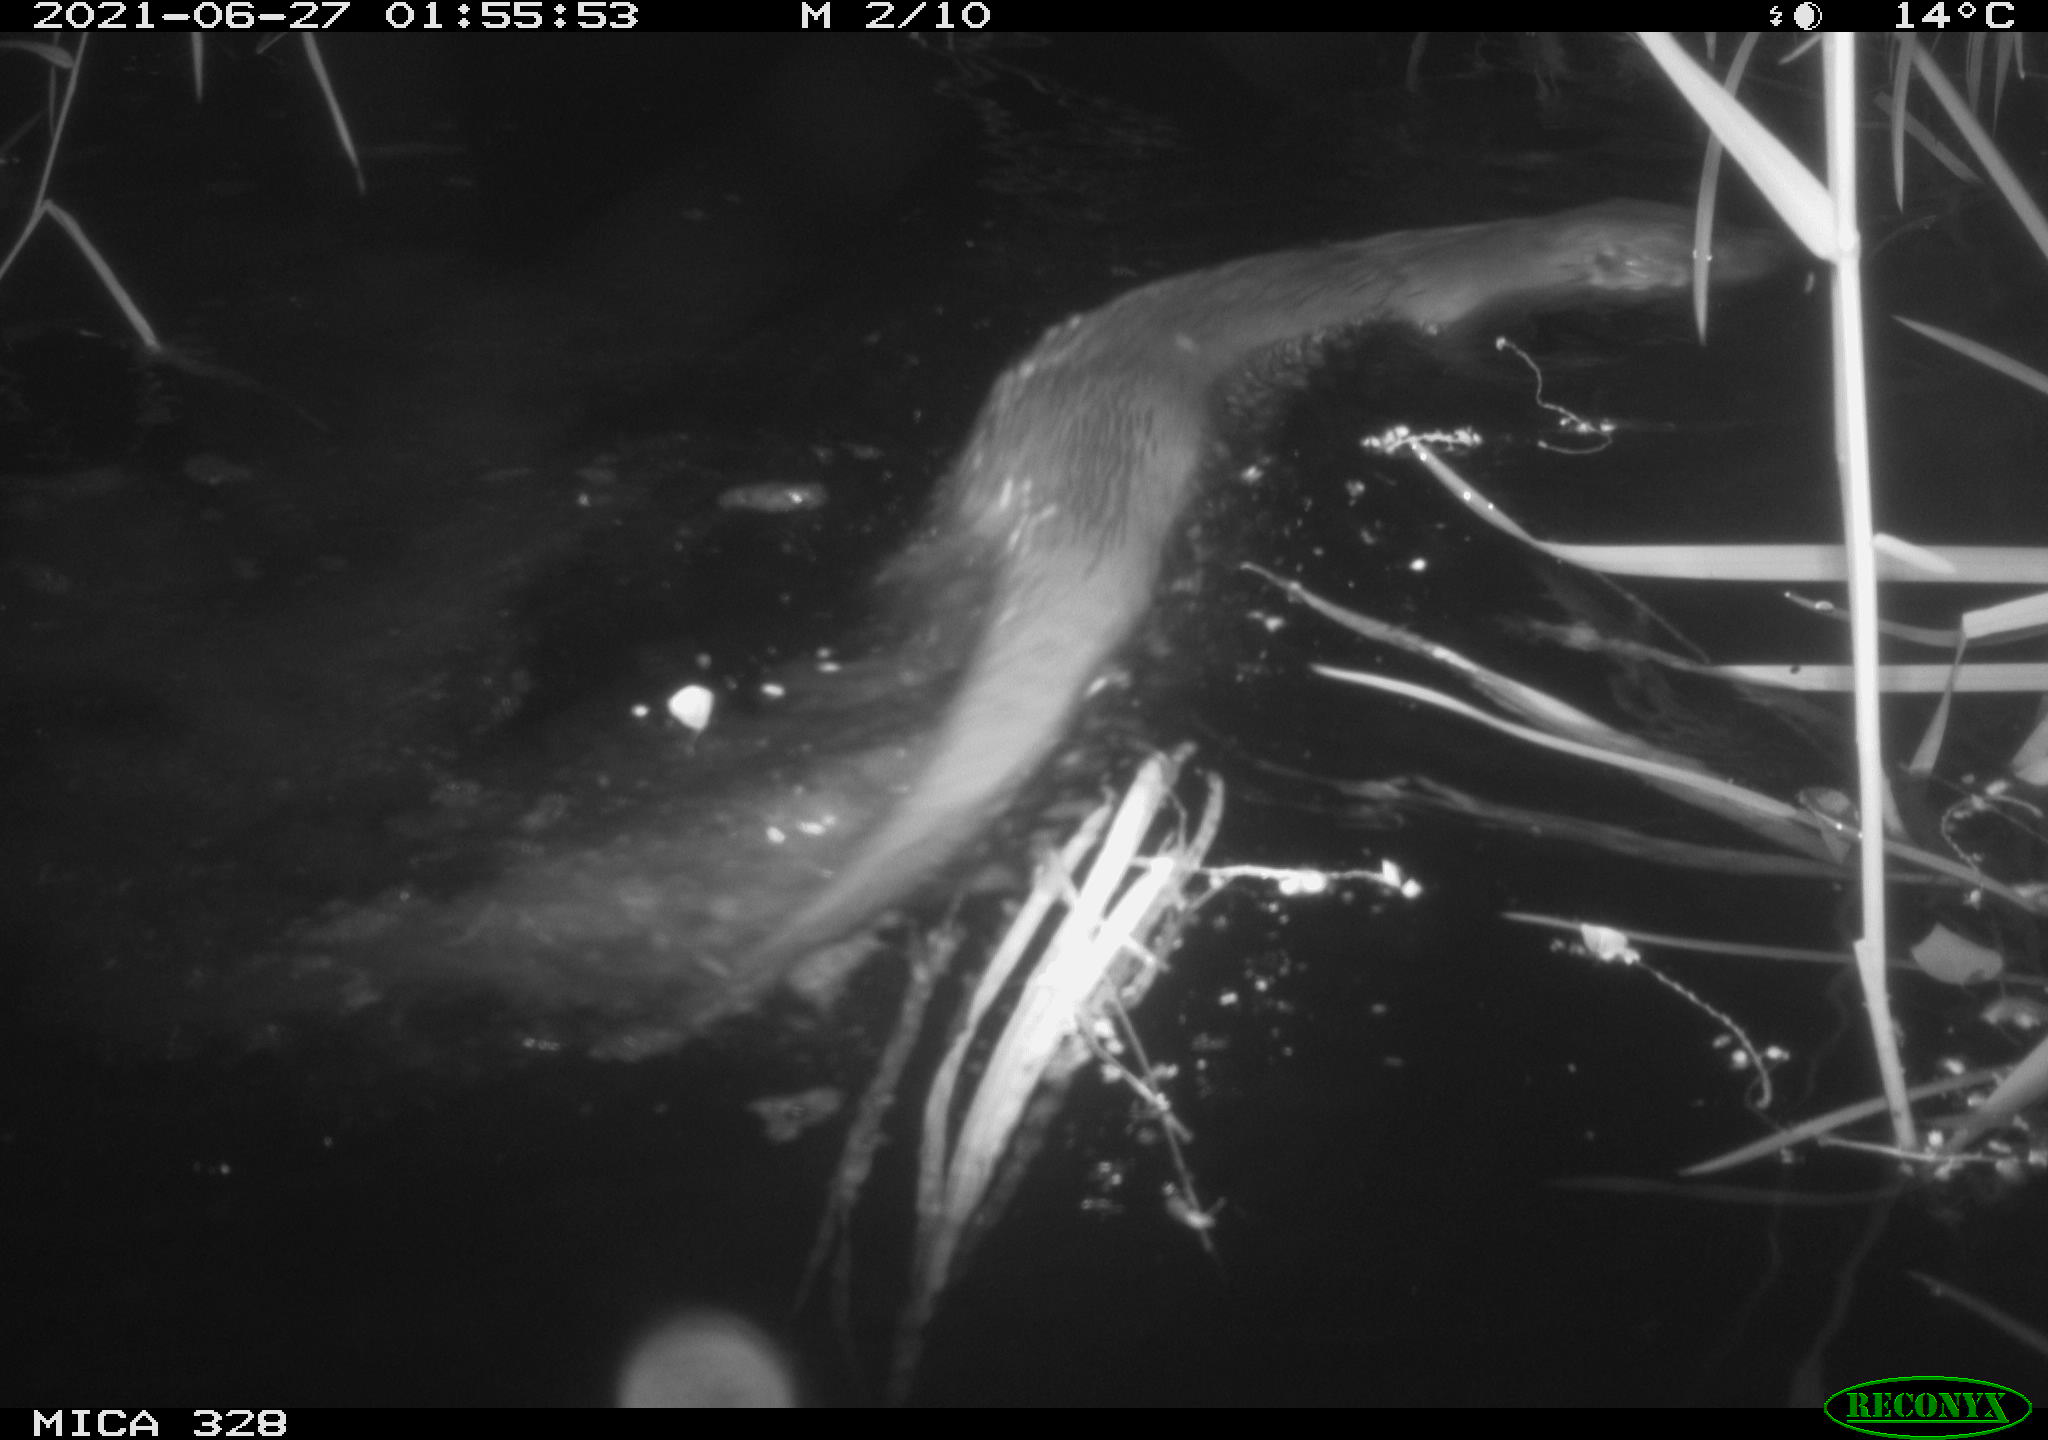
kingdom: Animalia
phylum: Chordata
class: Mammalia
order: Carnivora
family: Mustelidae
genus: Lutra
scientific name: Lutra lutra
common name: European otter
